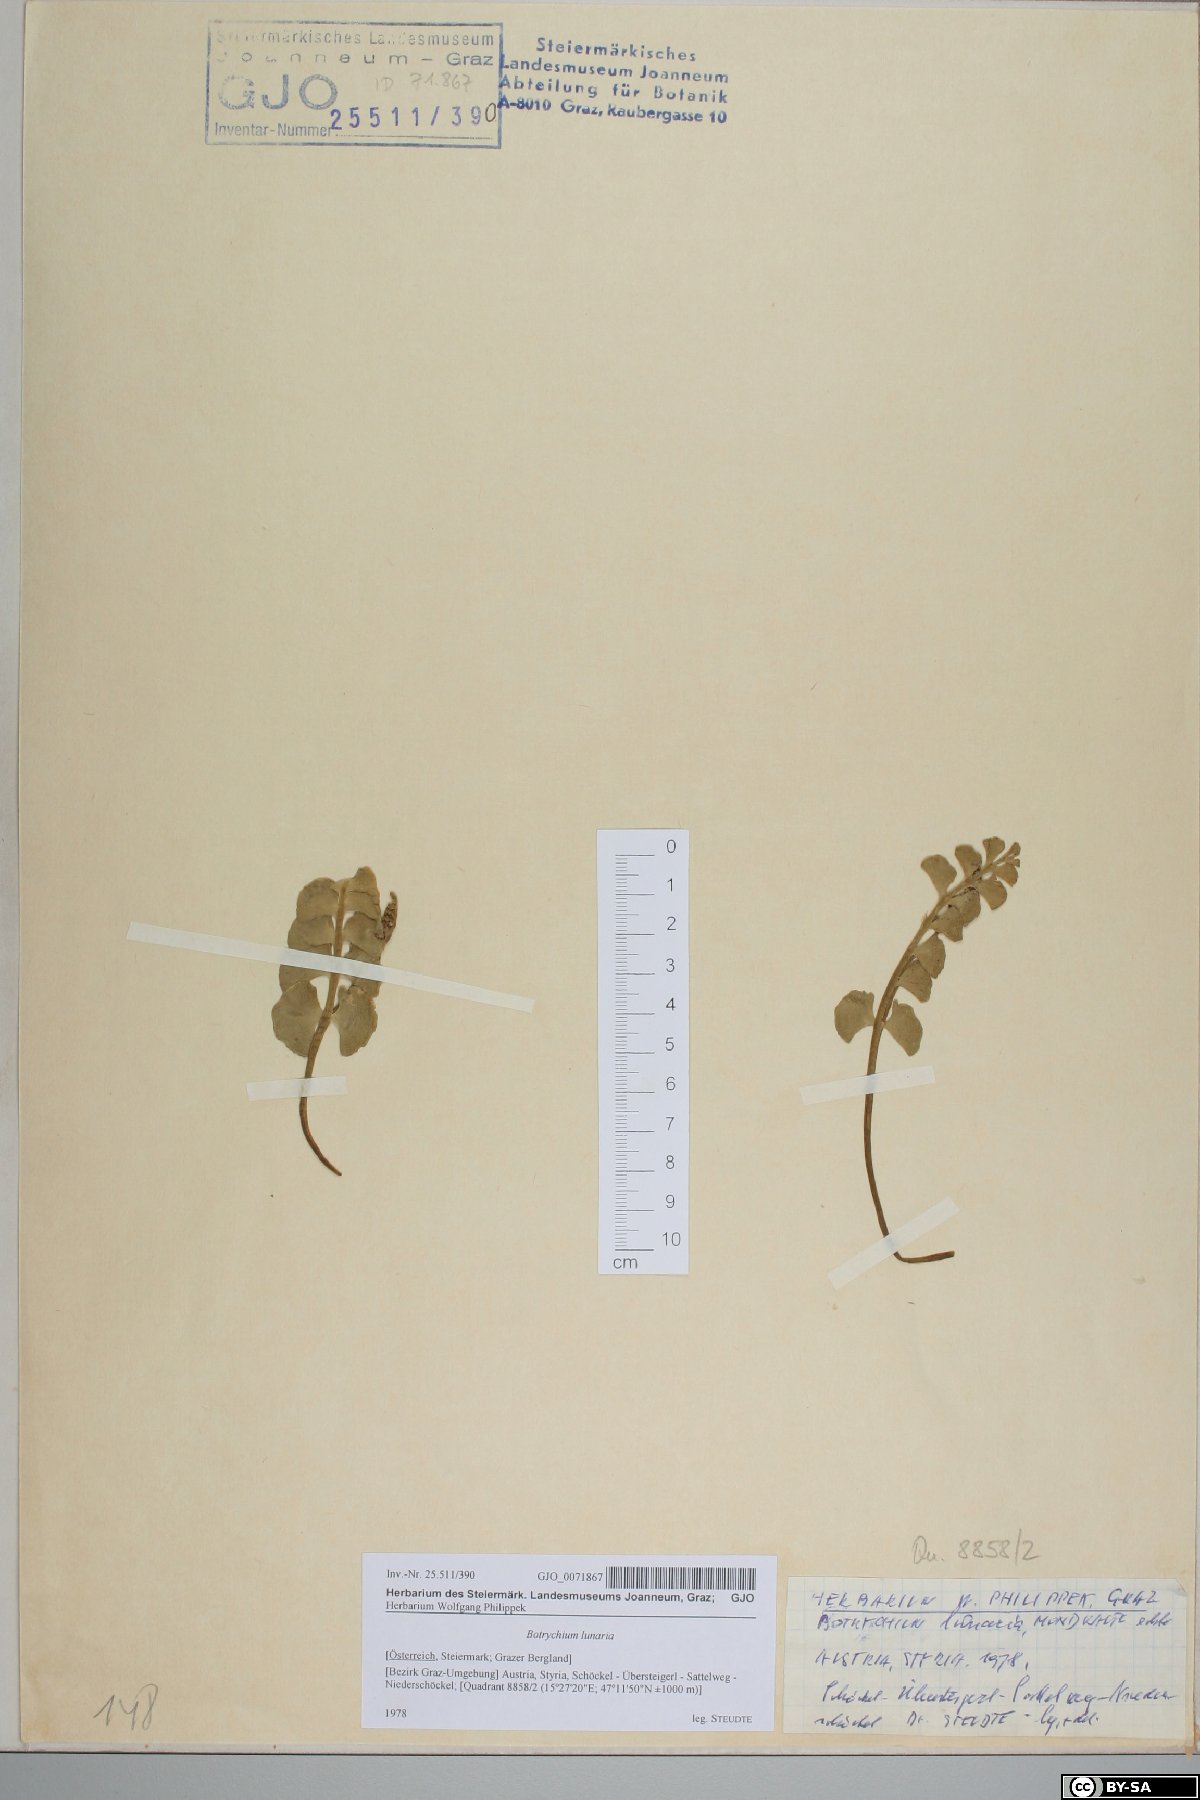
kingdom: Plantae
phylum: Tracheophyta
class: Polypodiopsida
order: Ophioglossales
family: Ophioglossaceae
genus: Botrychium
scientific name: Botrychium lunaria
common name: Moonwort
